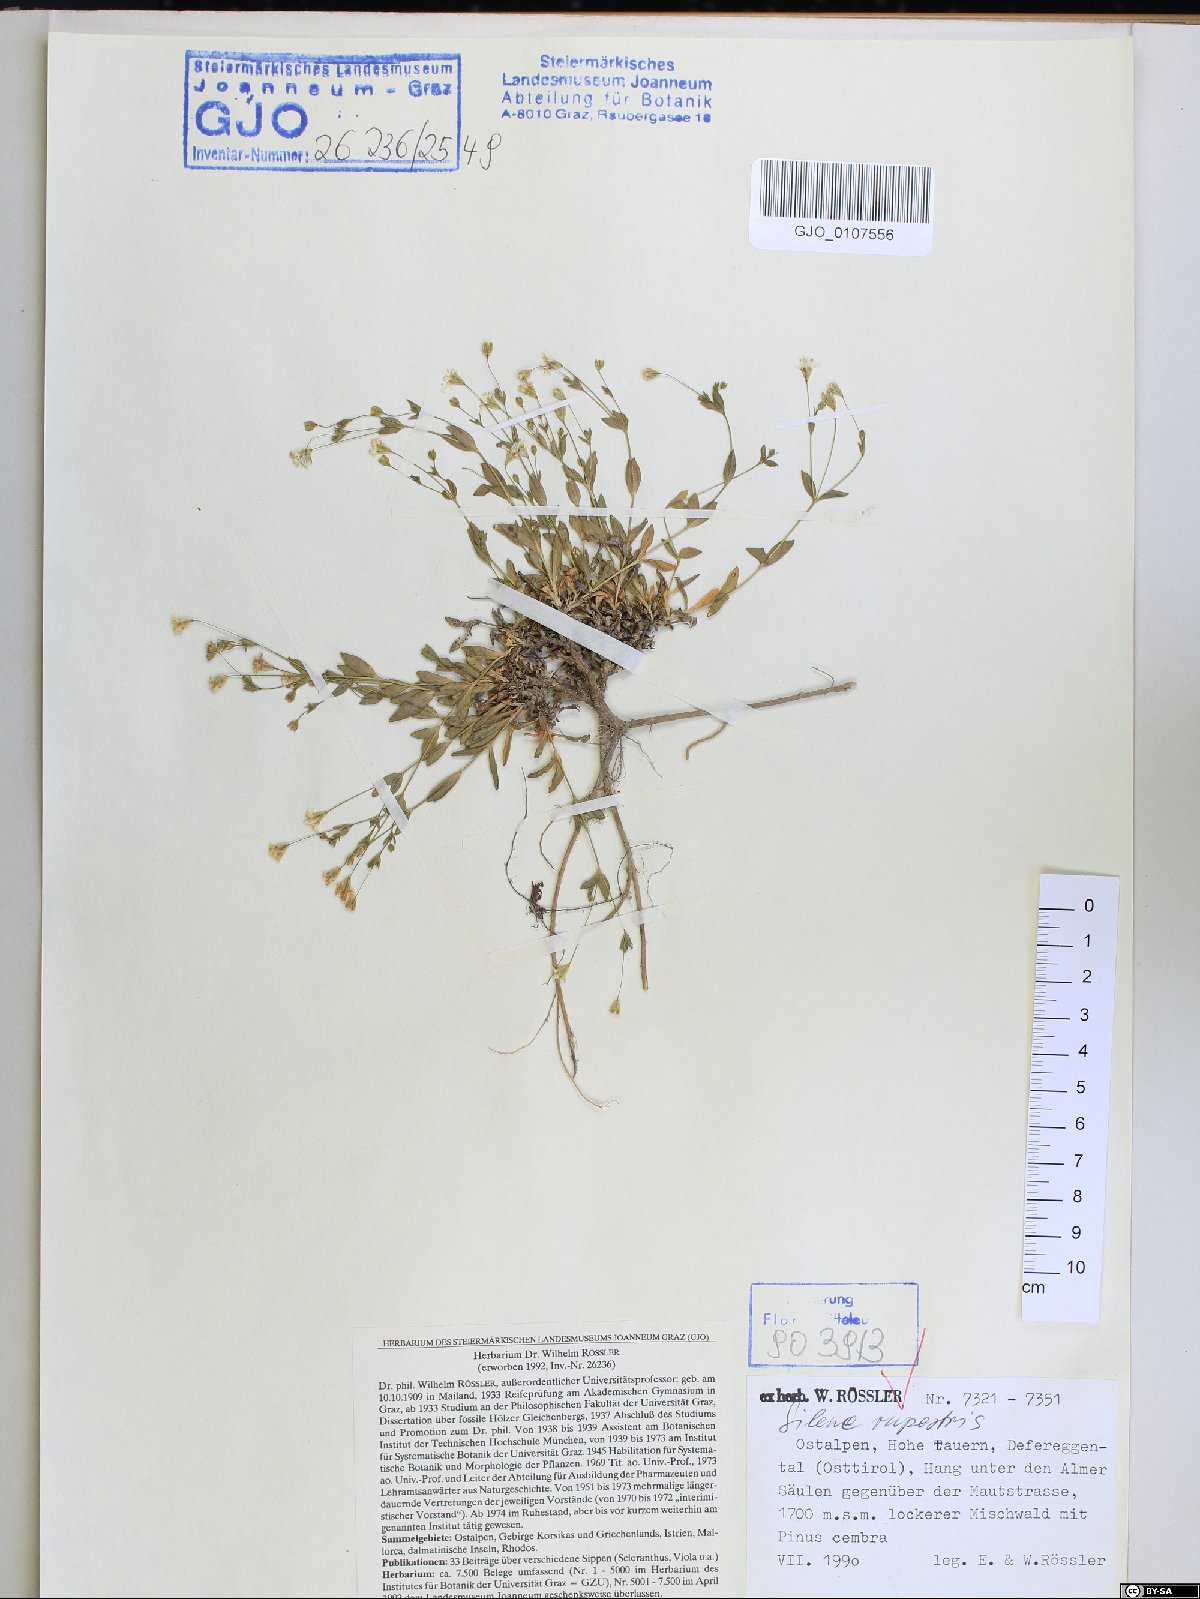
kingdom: Plantae
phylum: Tracheophyta
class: Magnoliopsida
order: Caryophyllales
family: Caryophyllaceae
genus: Atocion
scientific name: Atocion rupestre
